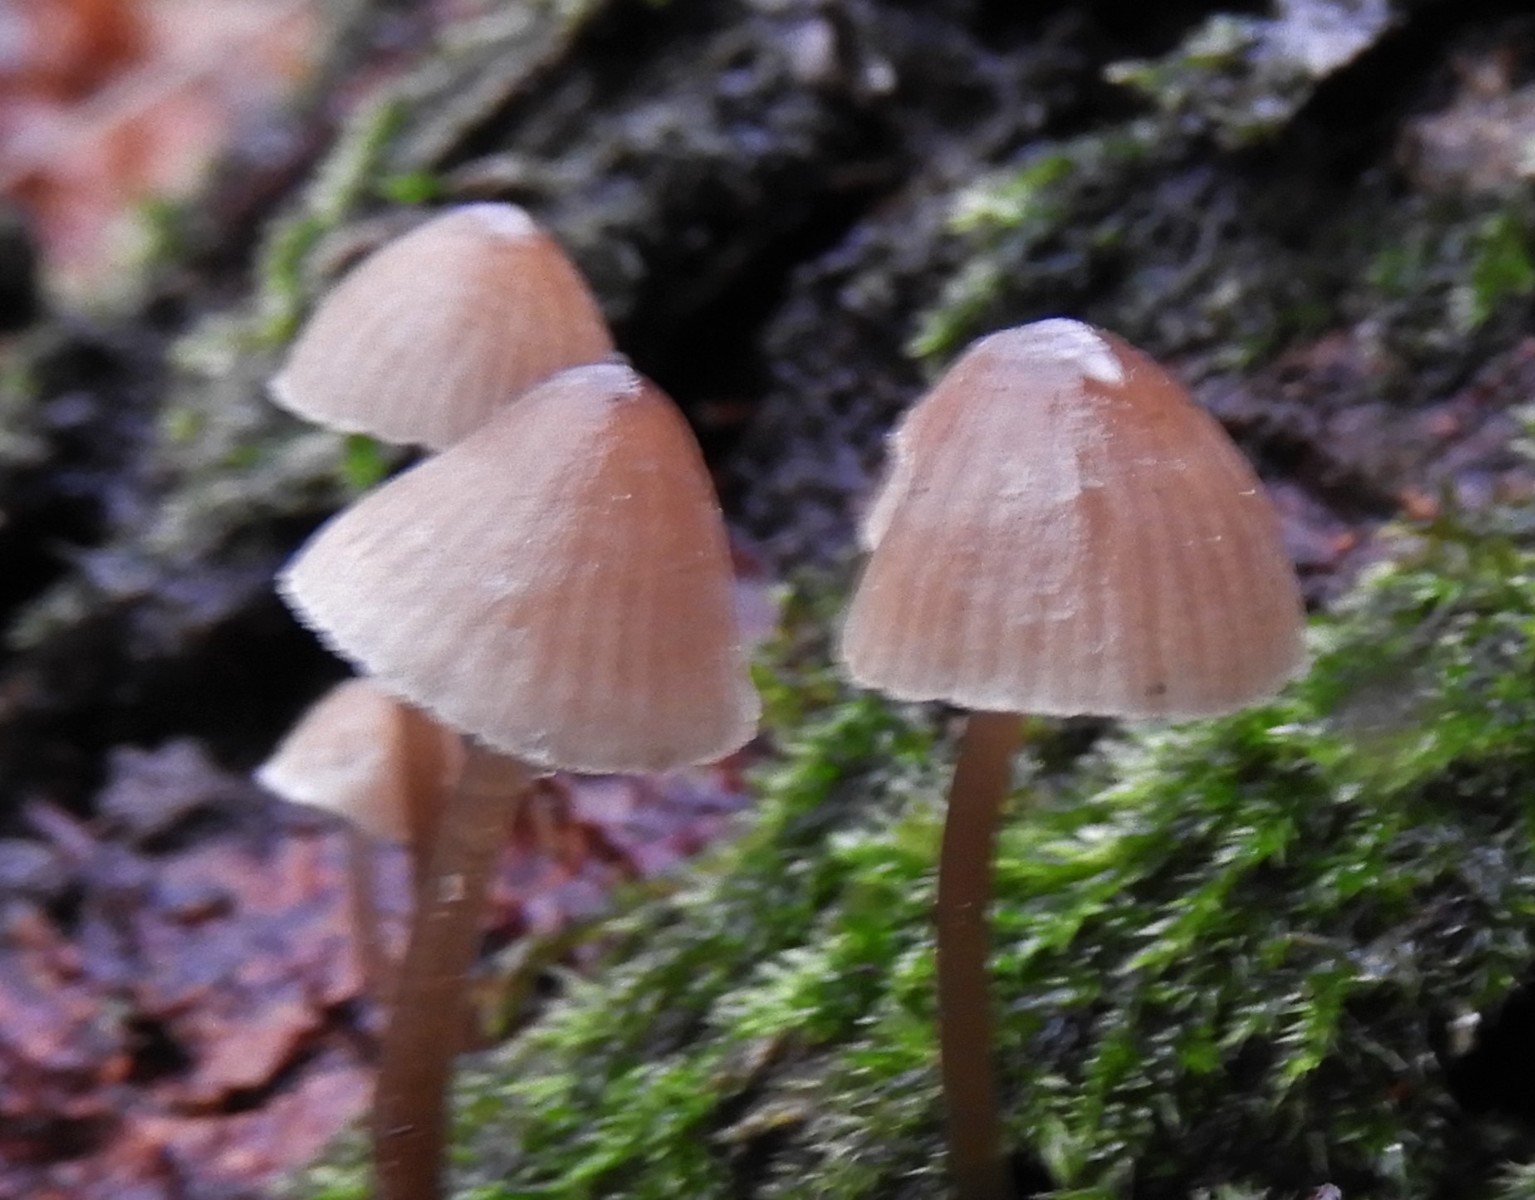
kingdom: Fungi
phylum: Basidiomycota
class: Agaricomycetes
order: Agaricales
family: Mycenaceae
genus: Mycena
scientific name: Mycena metata
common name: rødlig huesvamp
